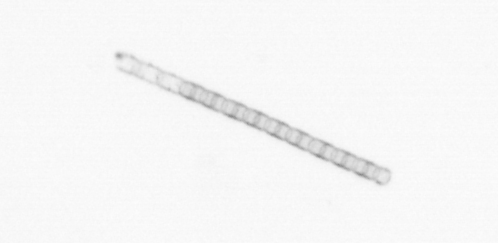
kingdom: Chromista
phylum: Ochrophyta
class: Bacillariophyceae
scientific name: Bacillariophyceae
